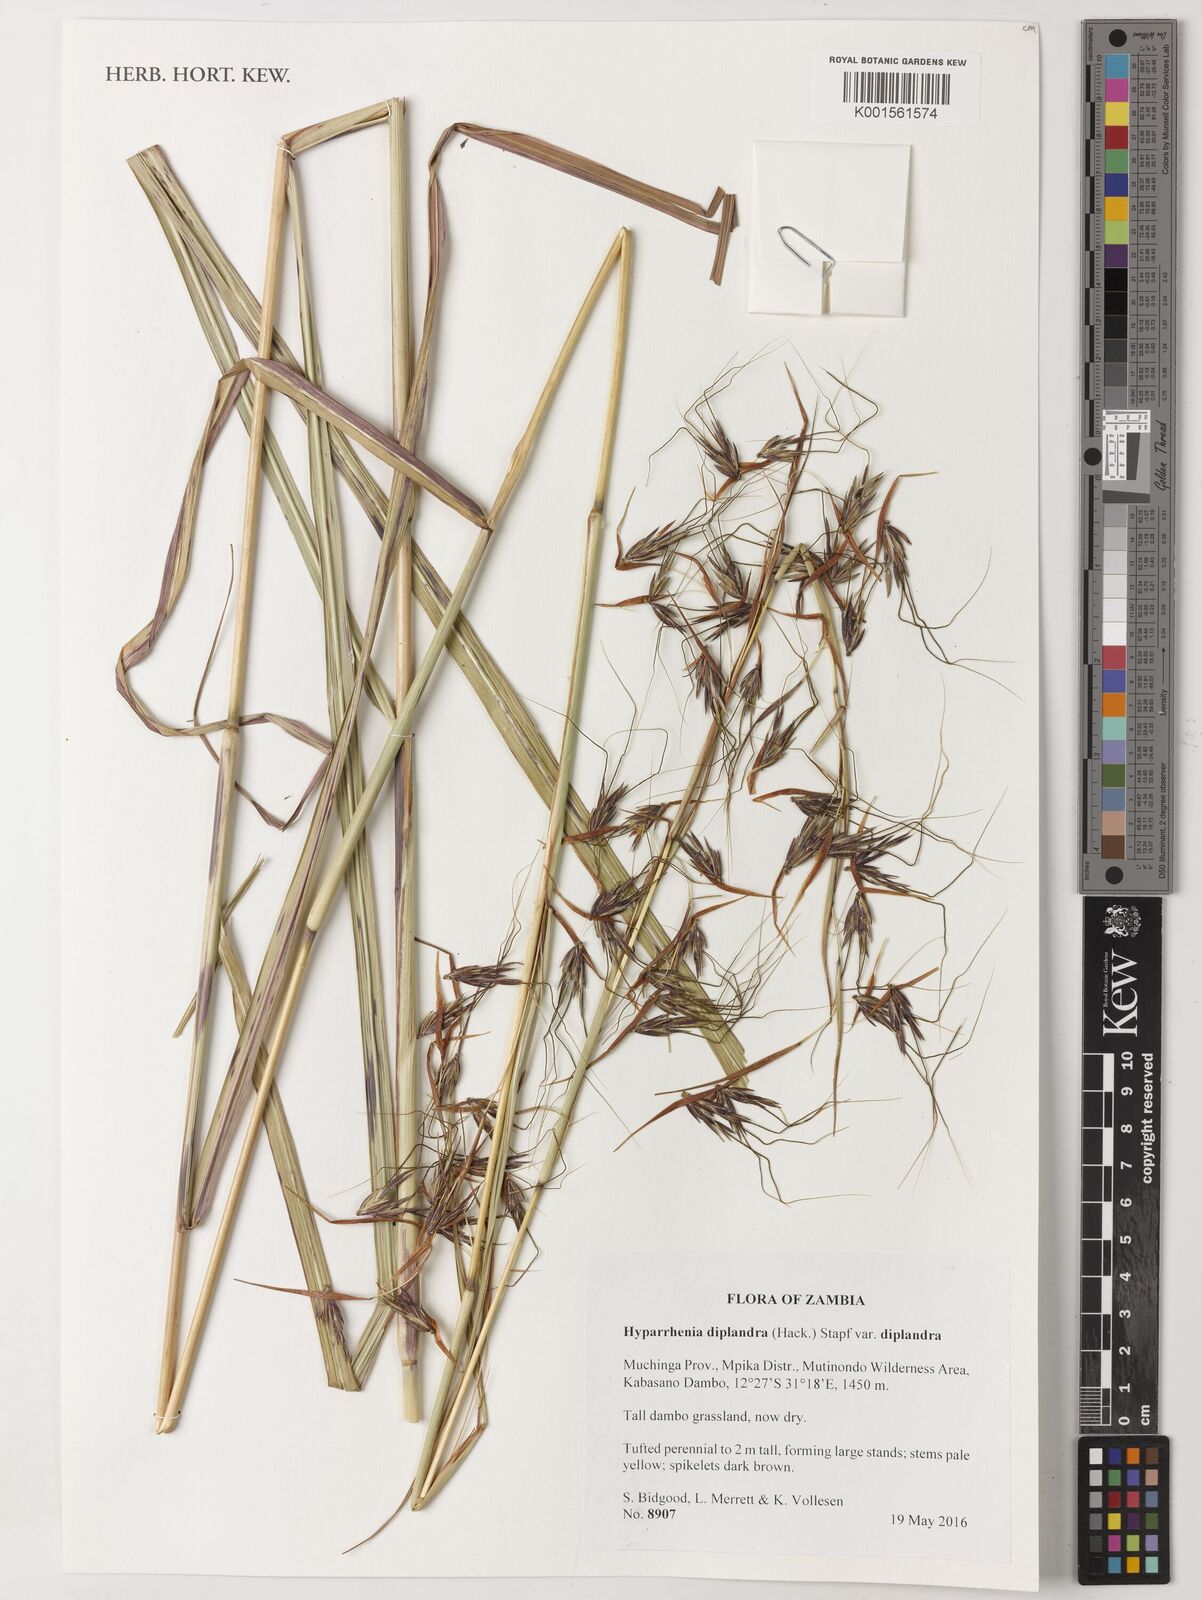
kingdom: Plantae
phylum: Tracheophyta
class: Liliopsida
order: Poales
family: Poaceae
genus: Hyparrhenia
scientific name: Hyparrhenia diplandra
